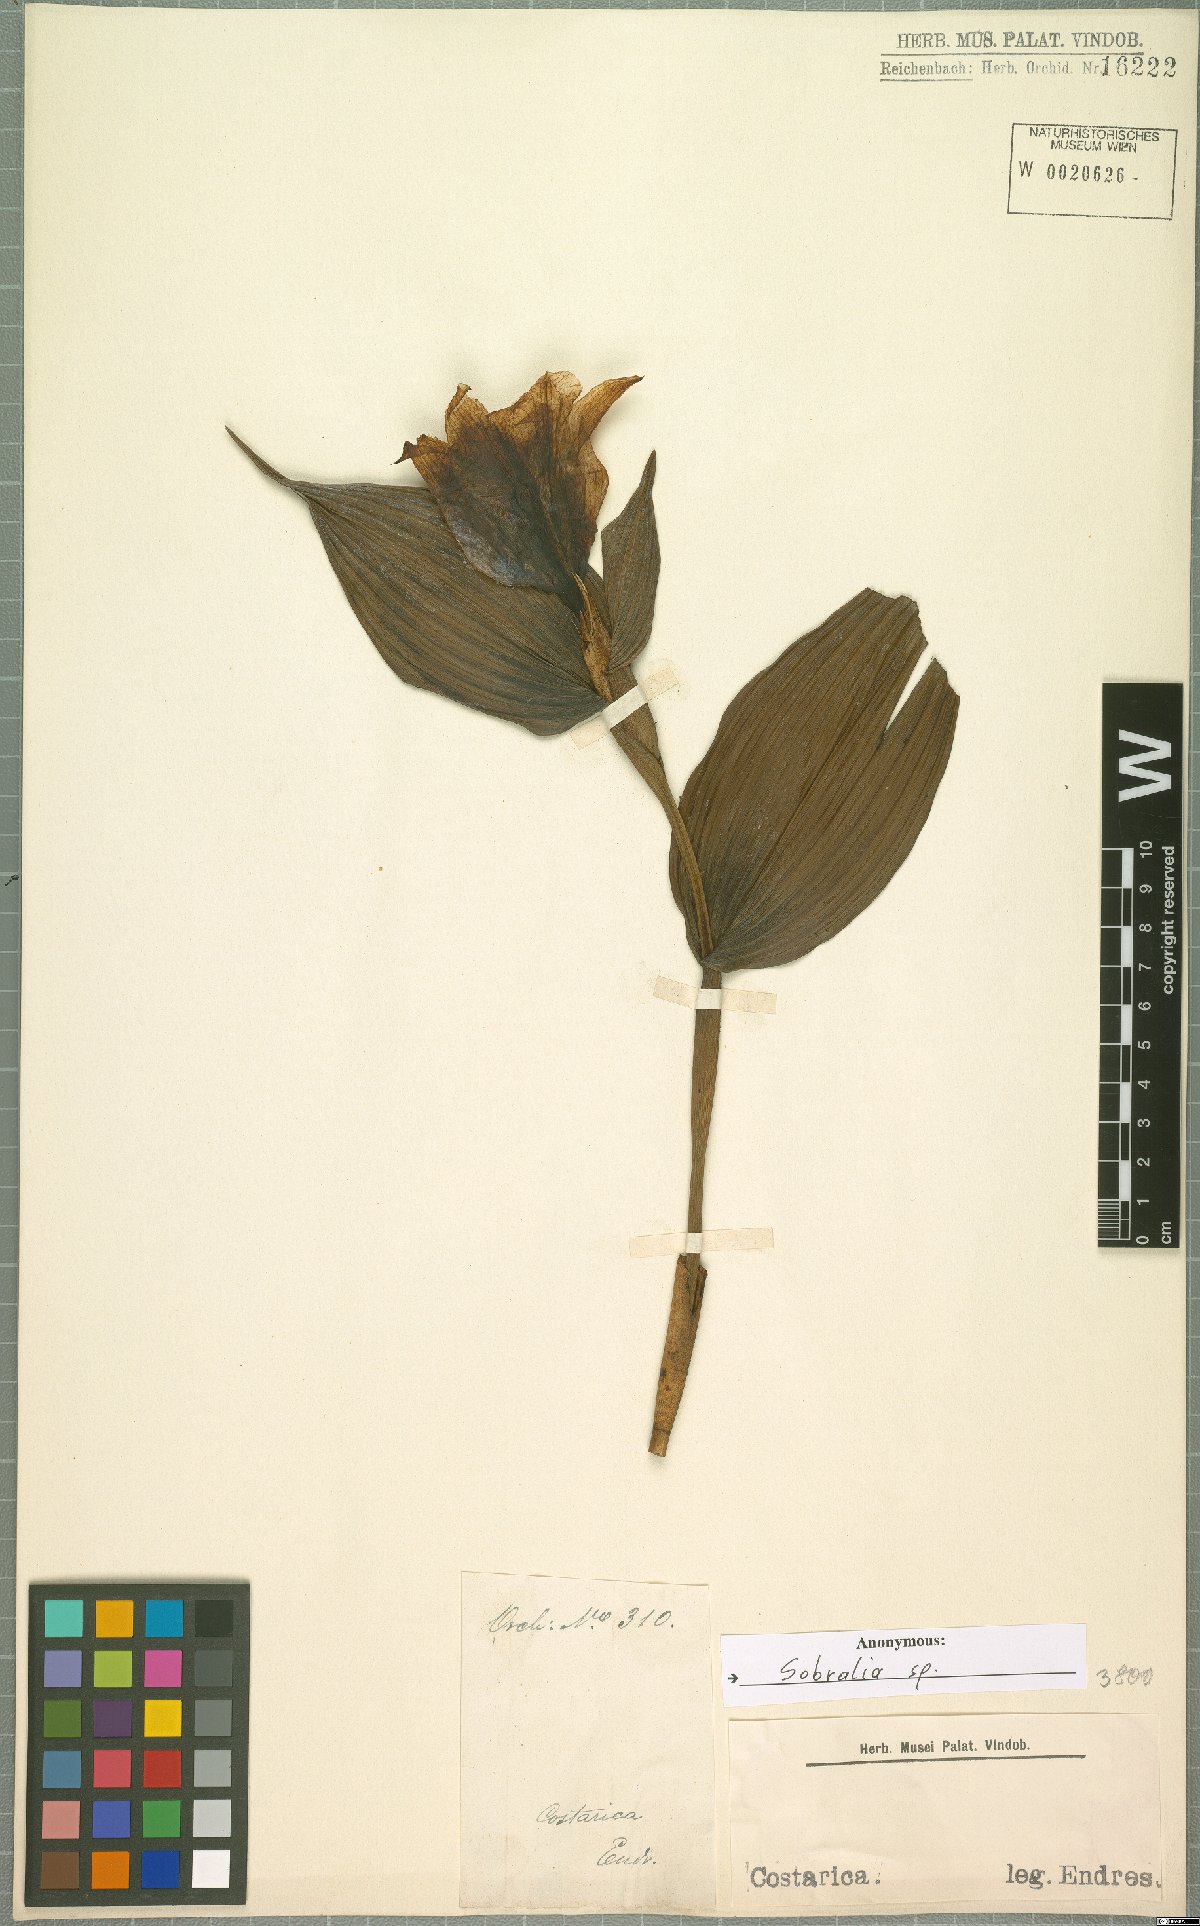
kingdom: Plantae
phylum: Tracheophyta
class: Liliopsida
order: Asparagales
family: Orchidaceae
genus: Sobralia
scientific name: Sobralia
